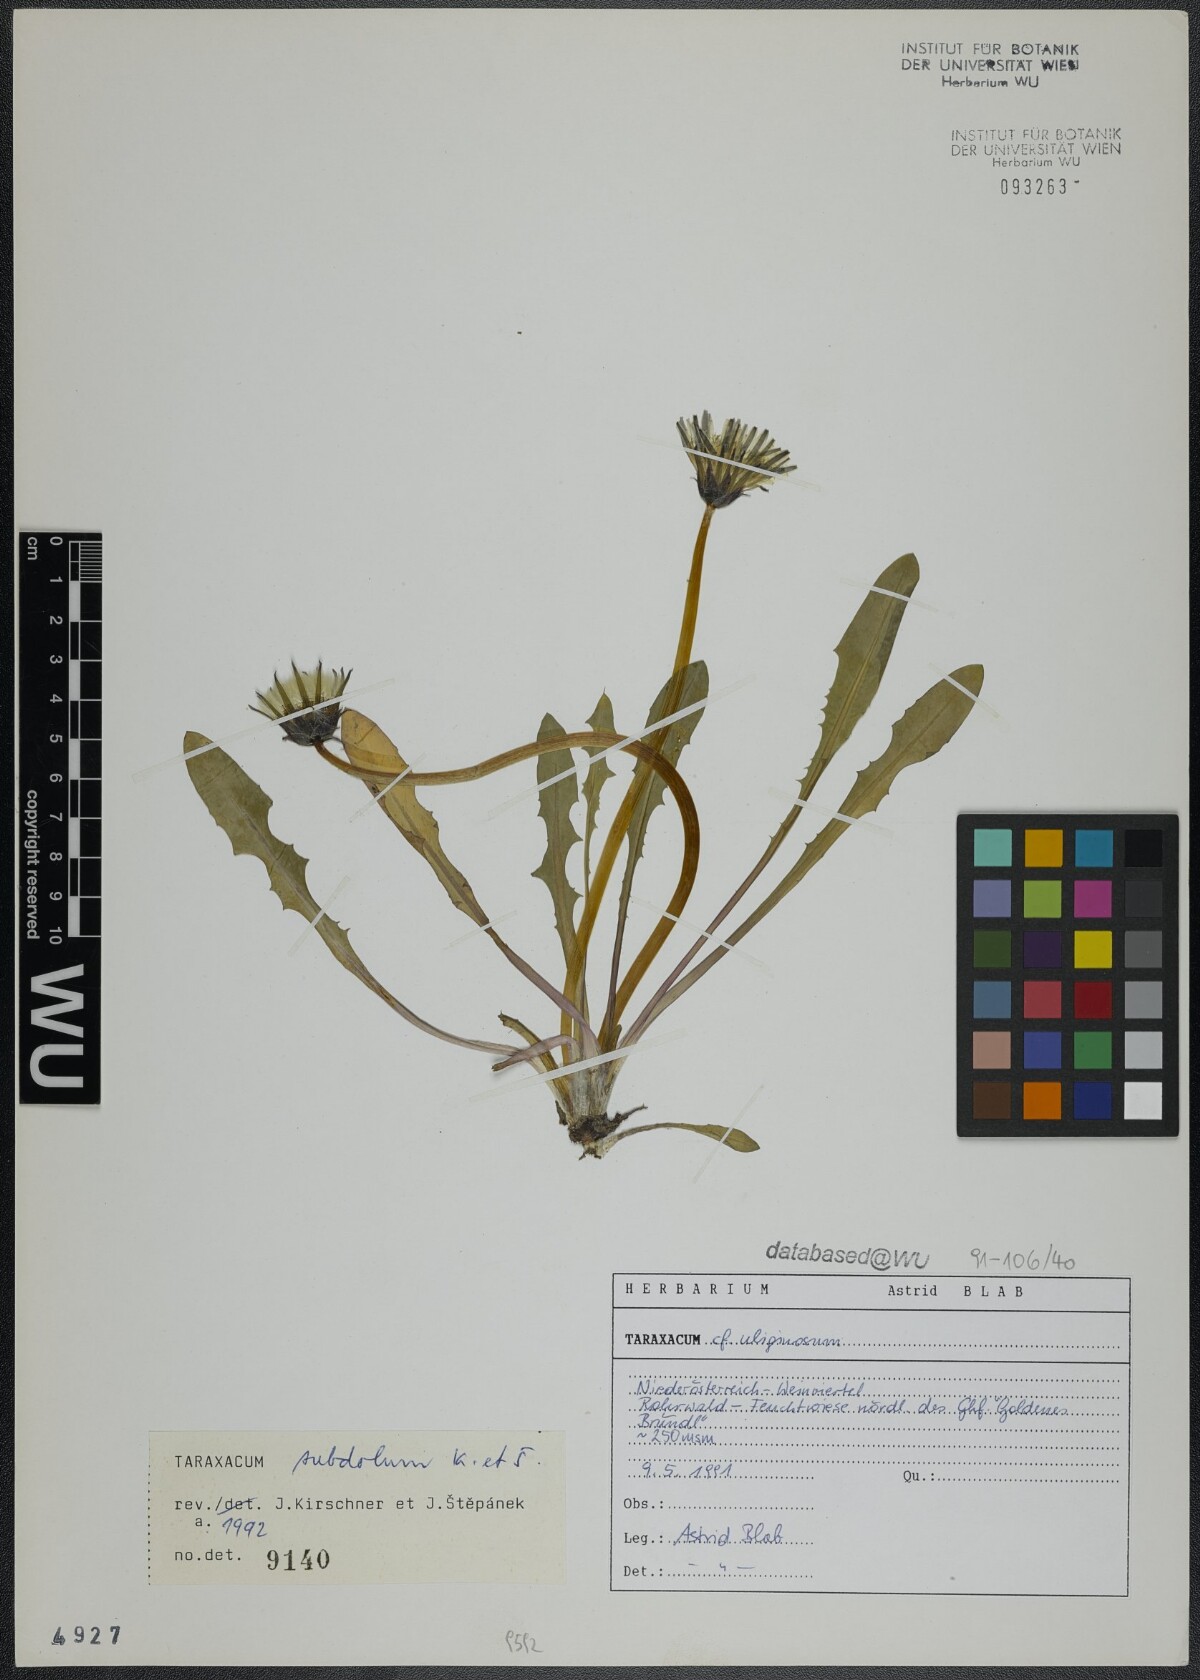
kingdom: Plantae
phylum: Tracheophyta
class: Magnoliopsida
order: Asterales
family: Asteraceae
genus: Taraxacum
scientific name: Taraxacum subdolum
